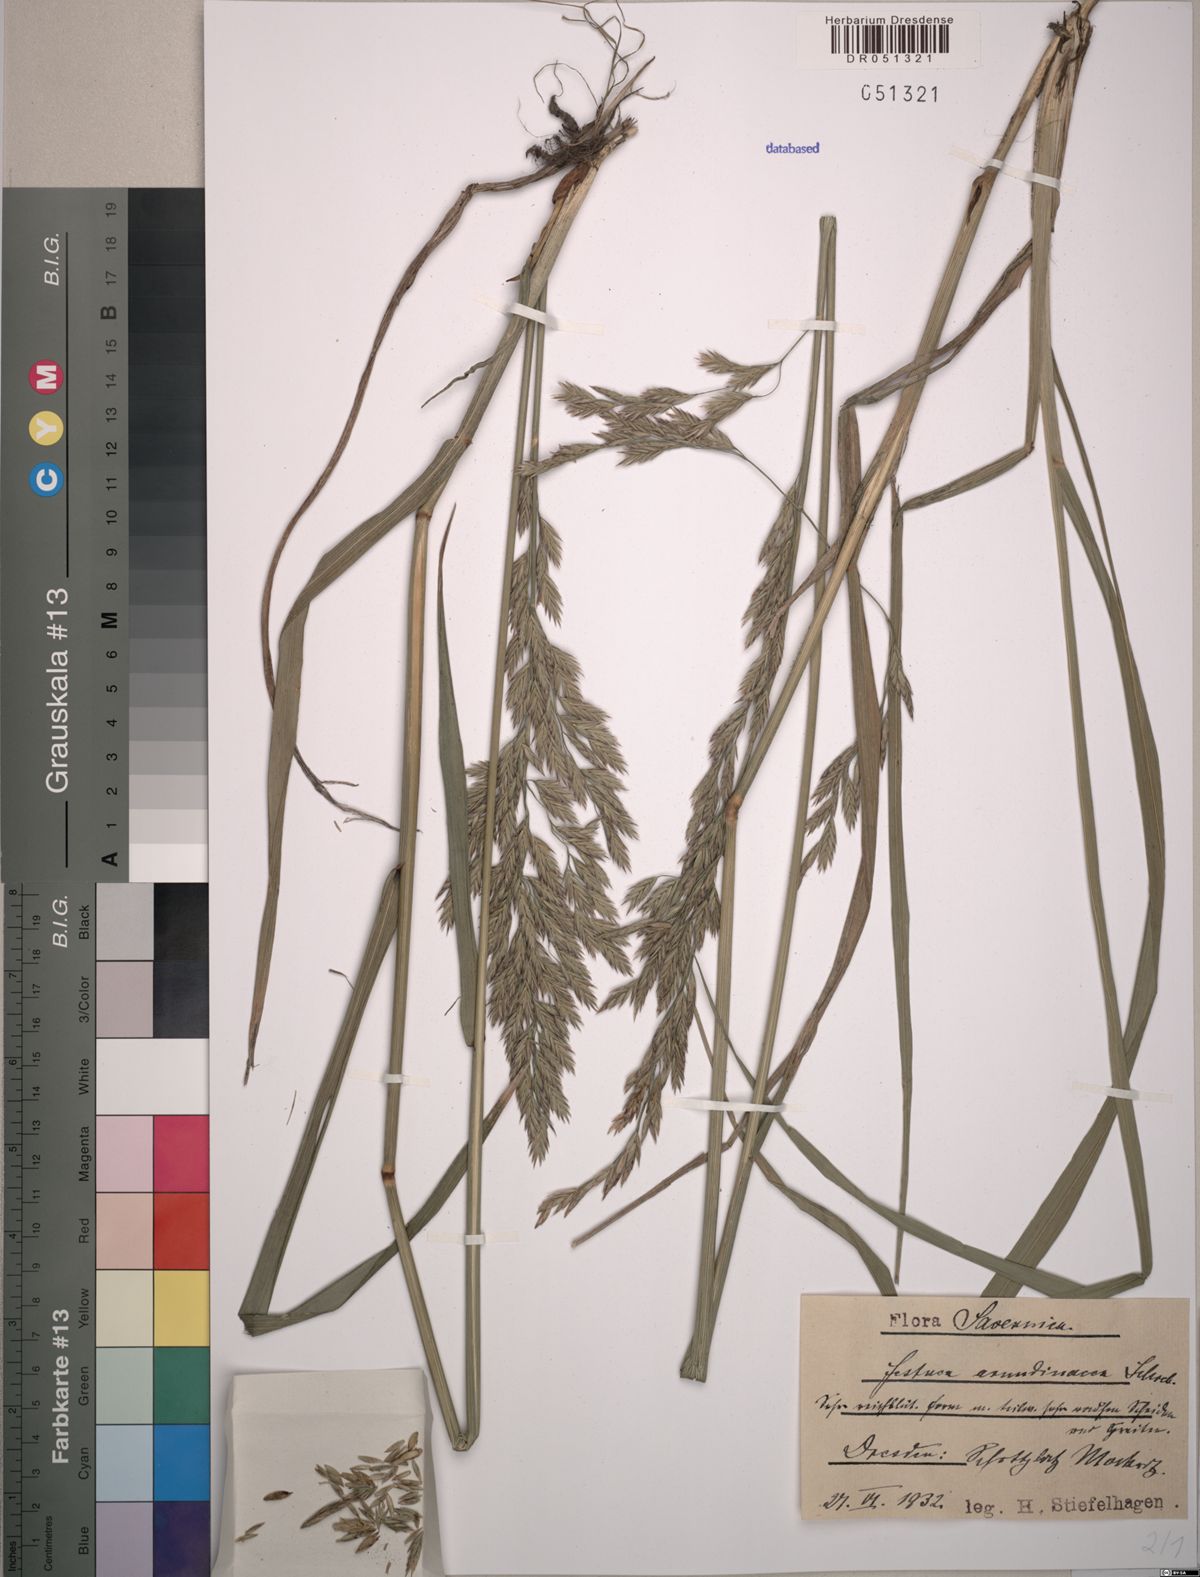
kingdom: Plantae
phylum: Tracheophyta
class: Liliopsida
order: Poales
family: Poaceae
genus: Lolium
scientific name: Lolium arundinaceum
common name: Reed fescue
